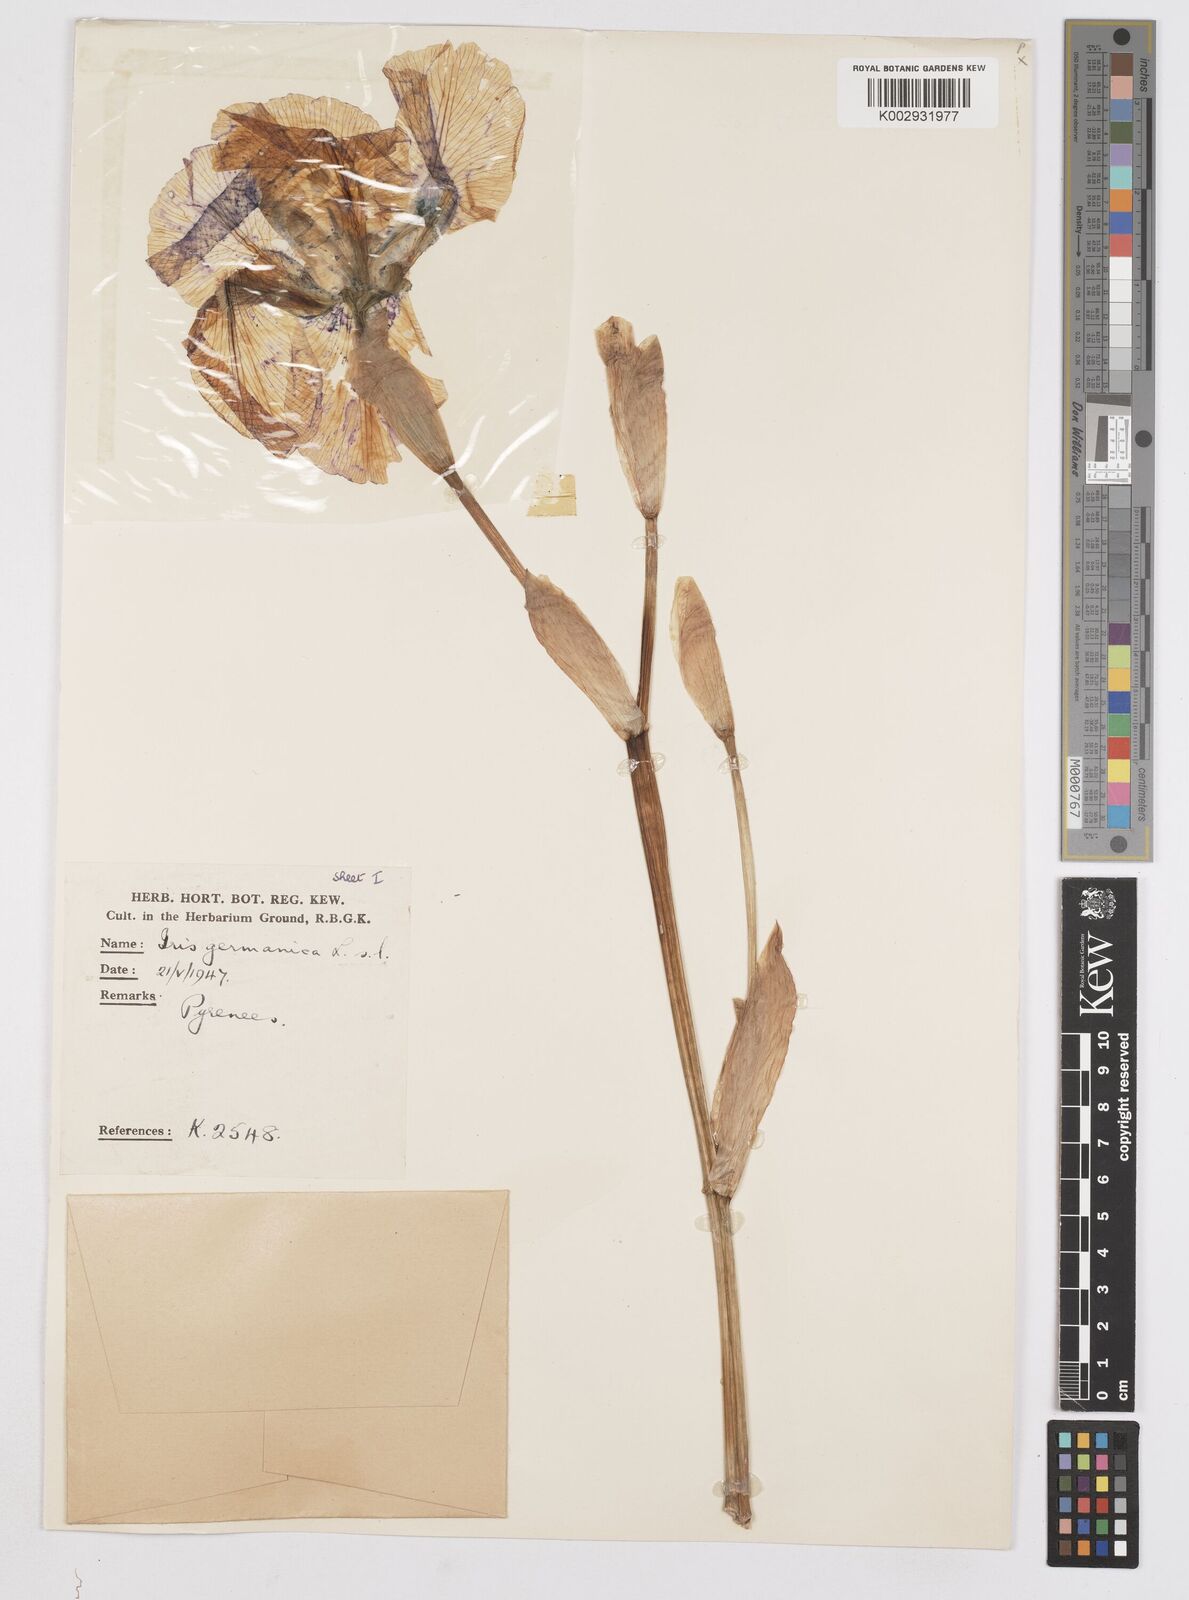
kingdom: Plantae
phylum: Tracheophyta
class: Liliopsida
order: Asparagales
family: Iridaceae
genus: Iris
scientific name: Iris
